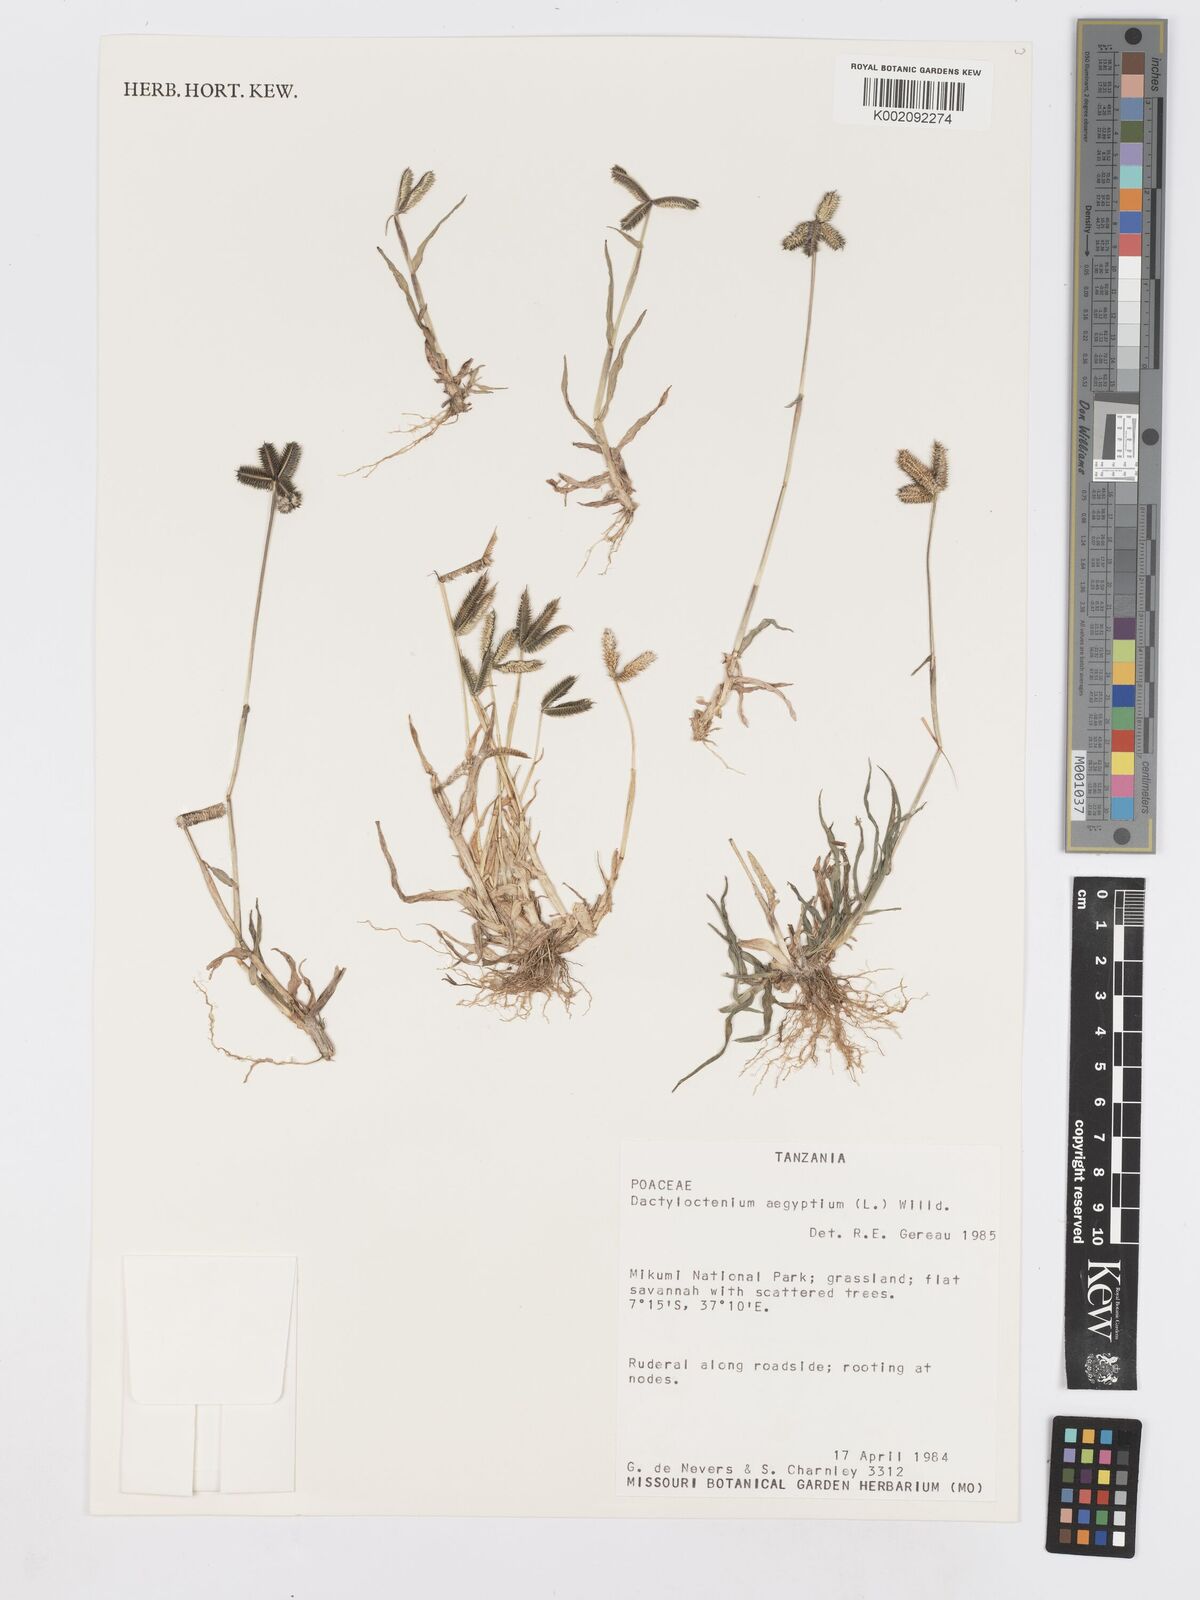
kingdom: Plantae
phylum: Tracheophyta
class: Liliopsida
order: Poales
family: Poaceae
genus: Dactyloctenium
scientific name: Dactyloctenium aegyptium
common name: Egyptian grass
